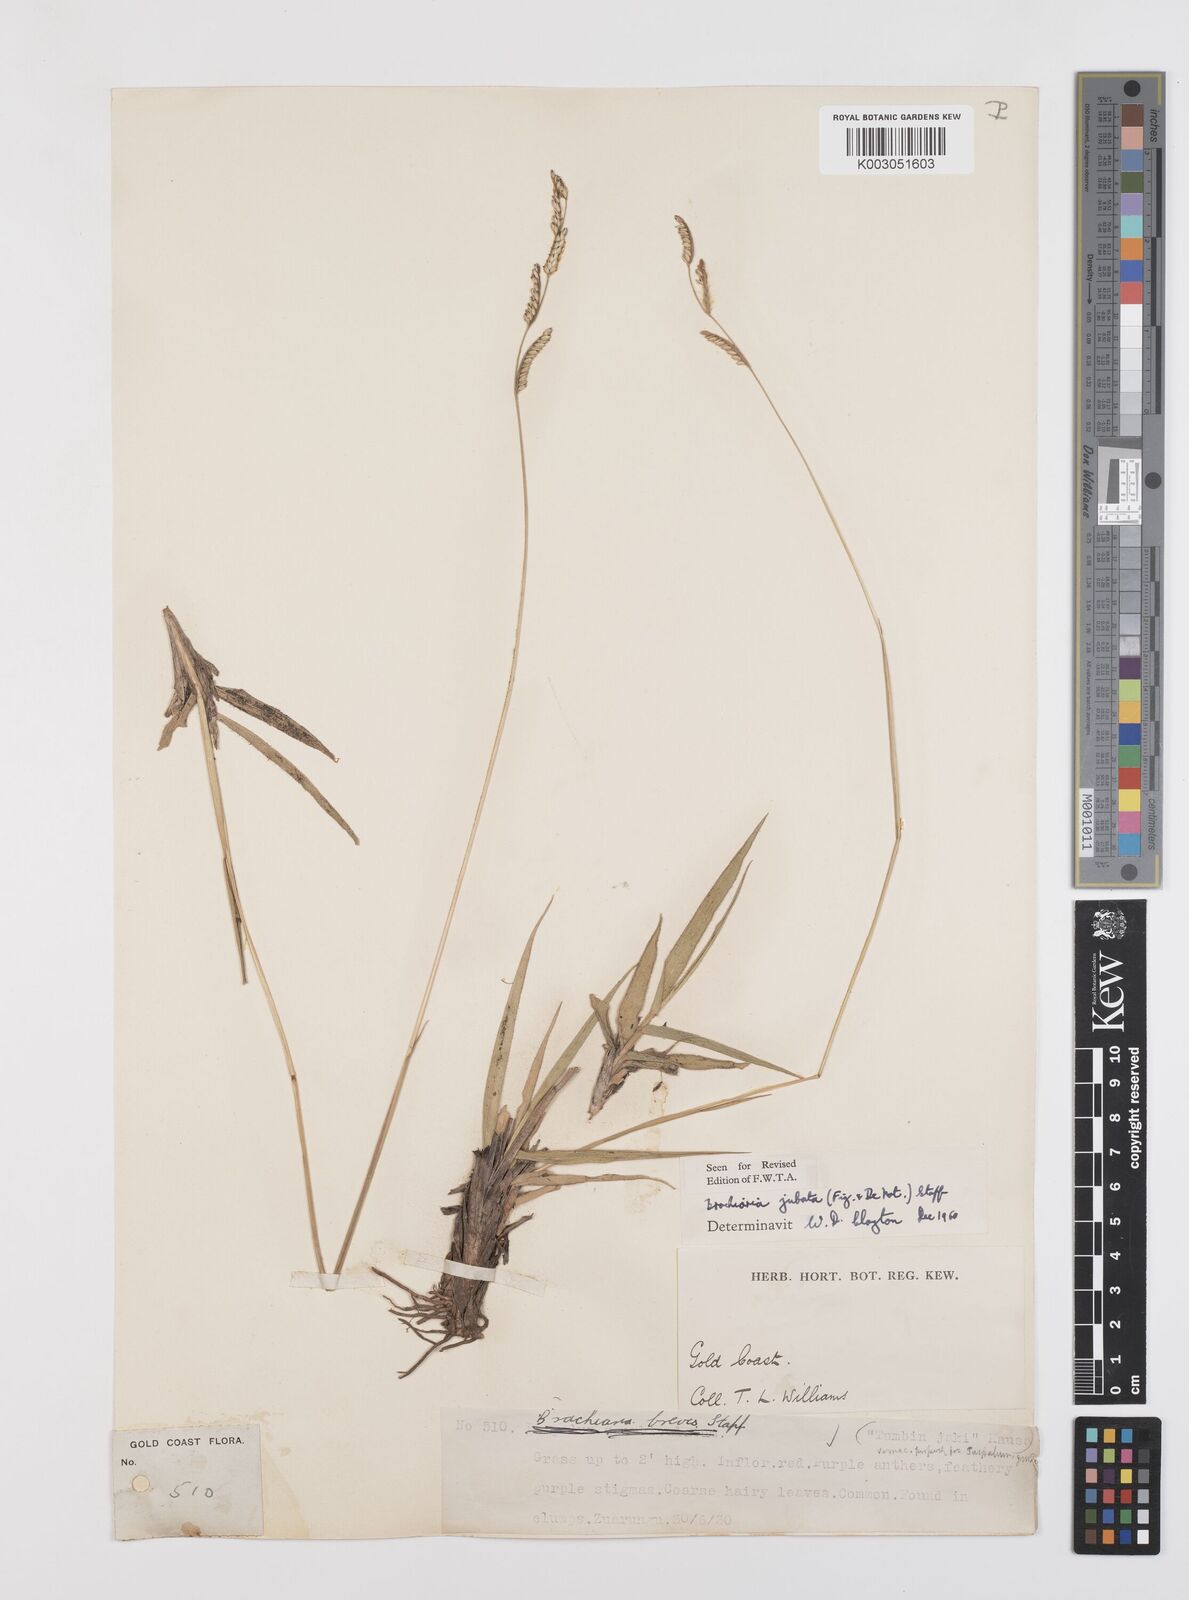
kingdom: Plantae
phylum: Tracheophyta
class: Liliopsida
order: Poales
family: Poaceae
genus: Urochloa
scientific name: Urochloa jubata
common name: Buffalograss
